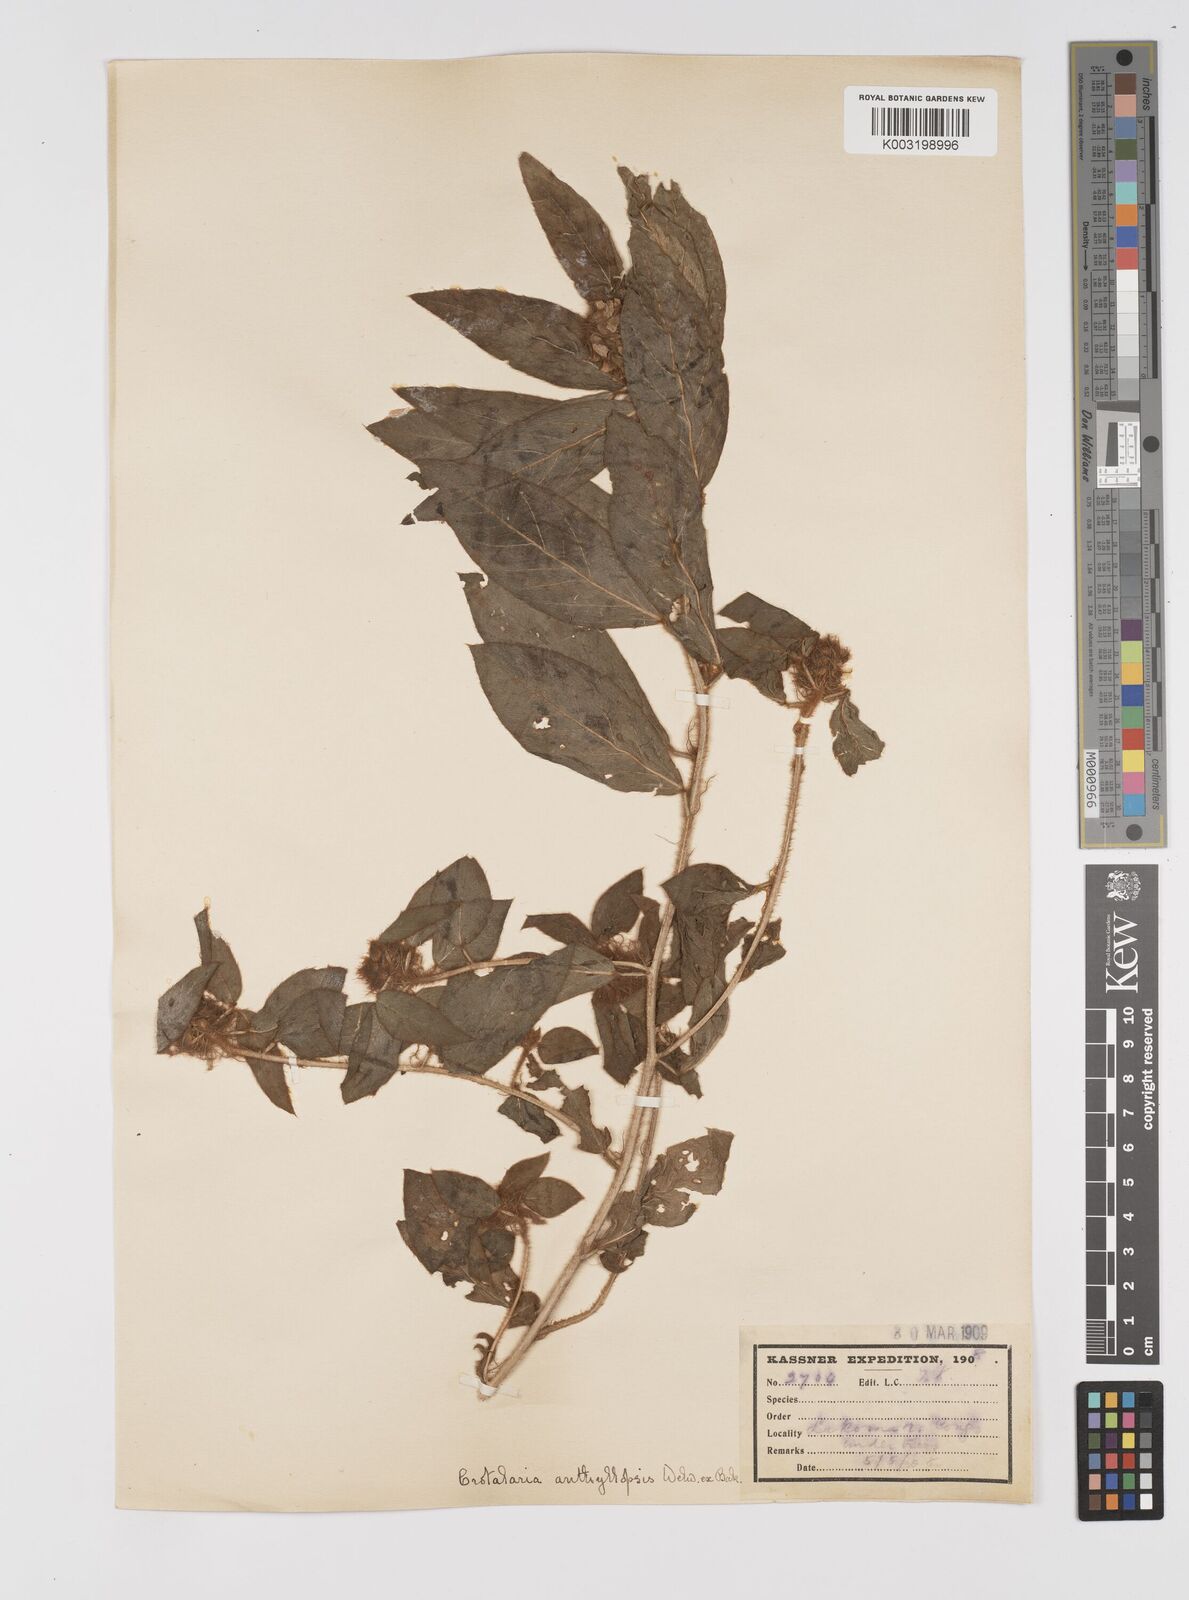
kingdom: Plantae
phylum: Tracheophyta
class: Magnoliopsida
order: Fabales
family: Fabaceae
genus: Crotalaria
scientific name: Crotalaria anthyllopsis
